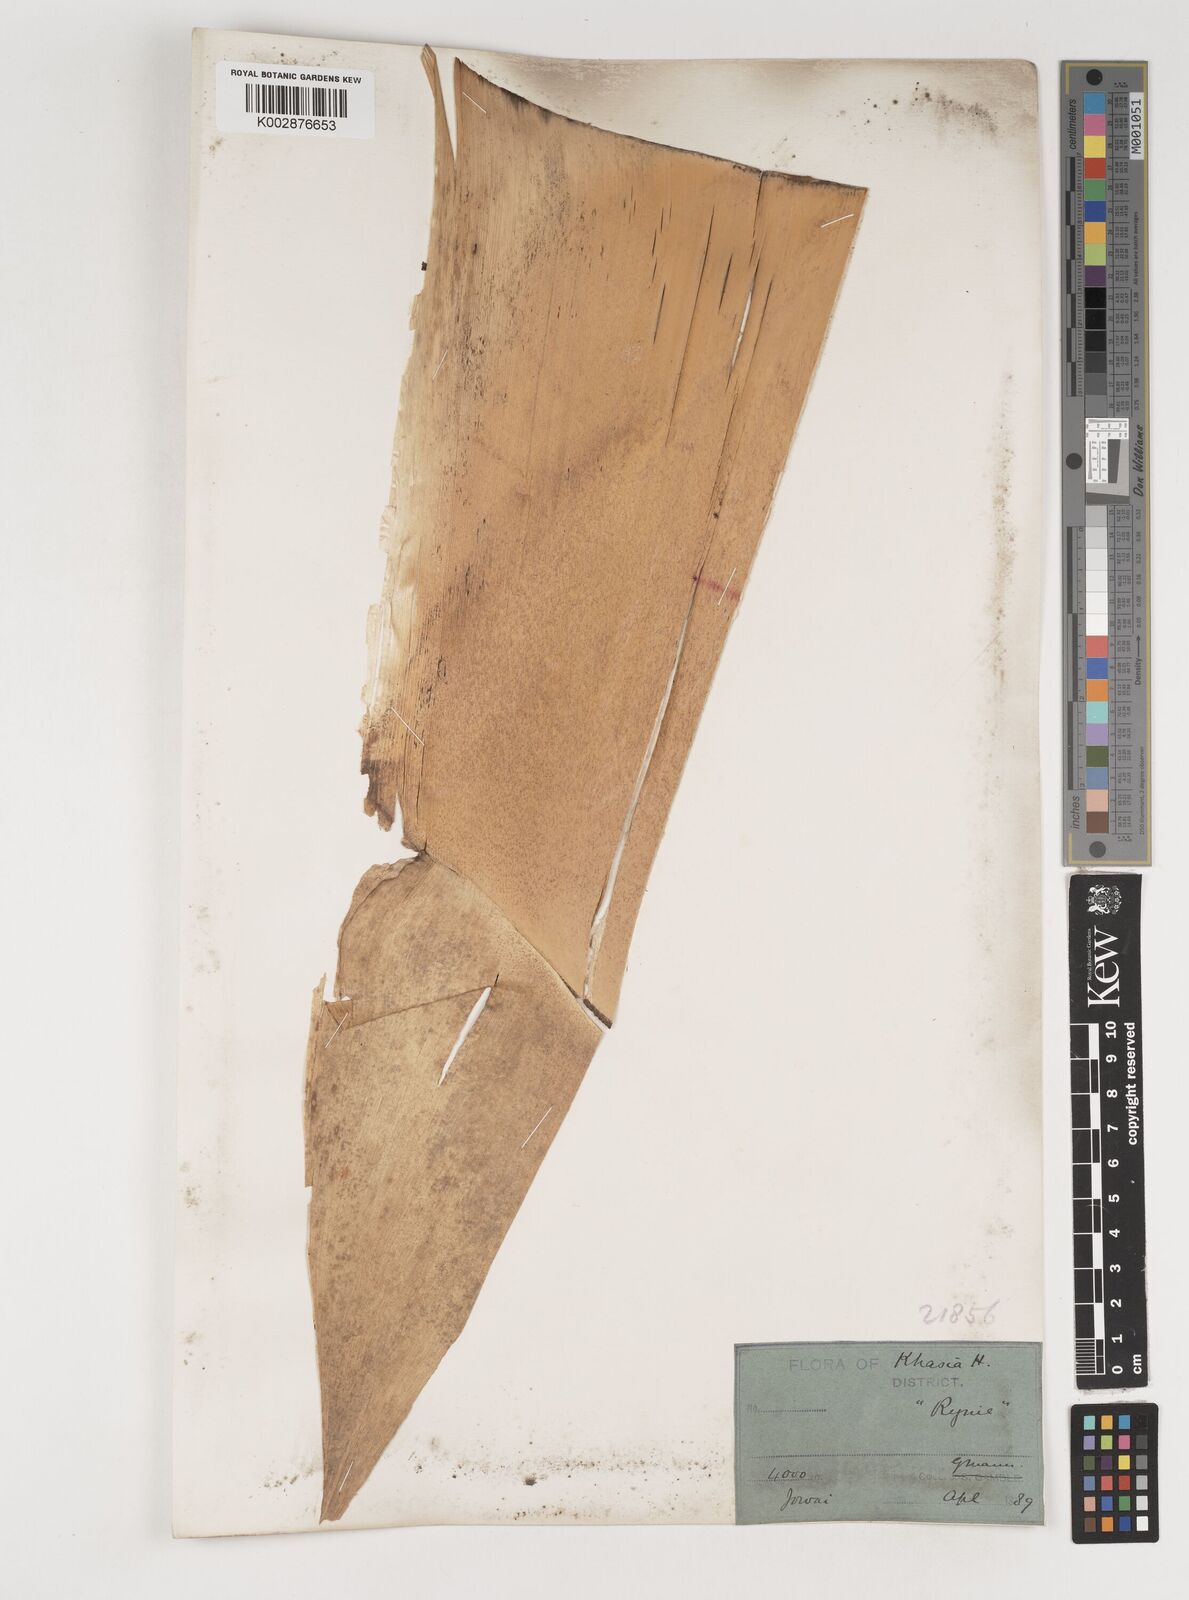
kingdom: Plantae
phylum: Tracheophyta
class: Liliopsida
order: Poales
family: Poaceae
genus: Bambusa
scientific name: Bambusa nutans
